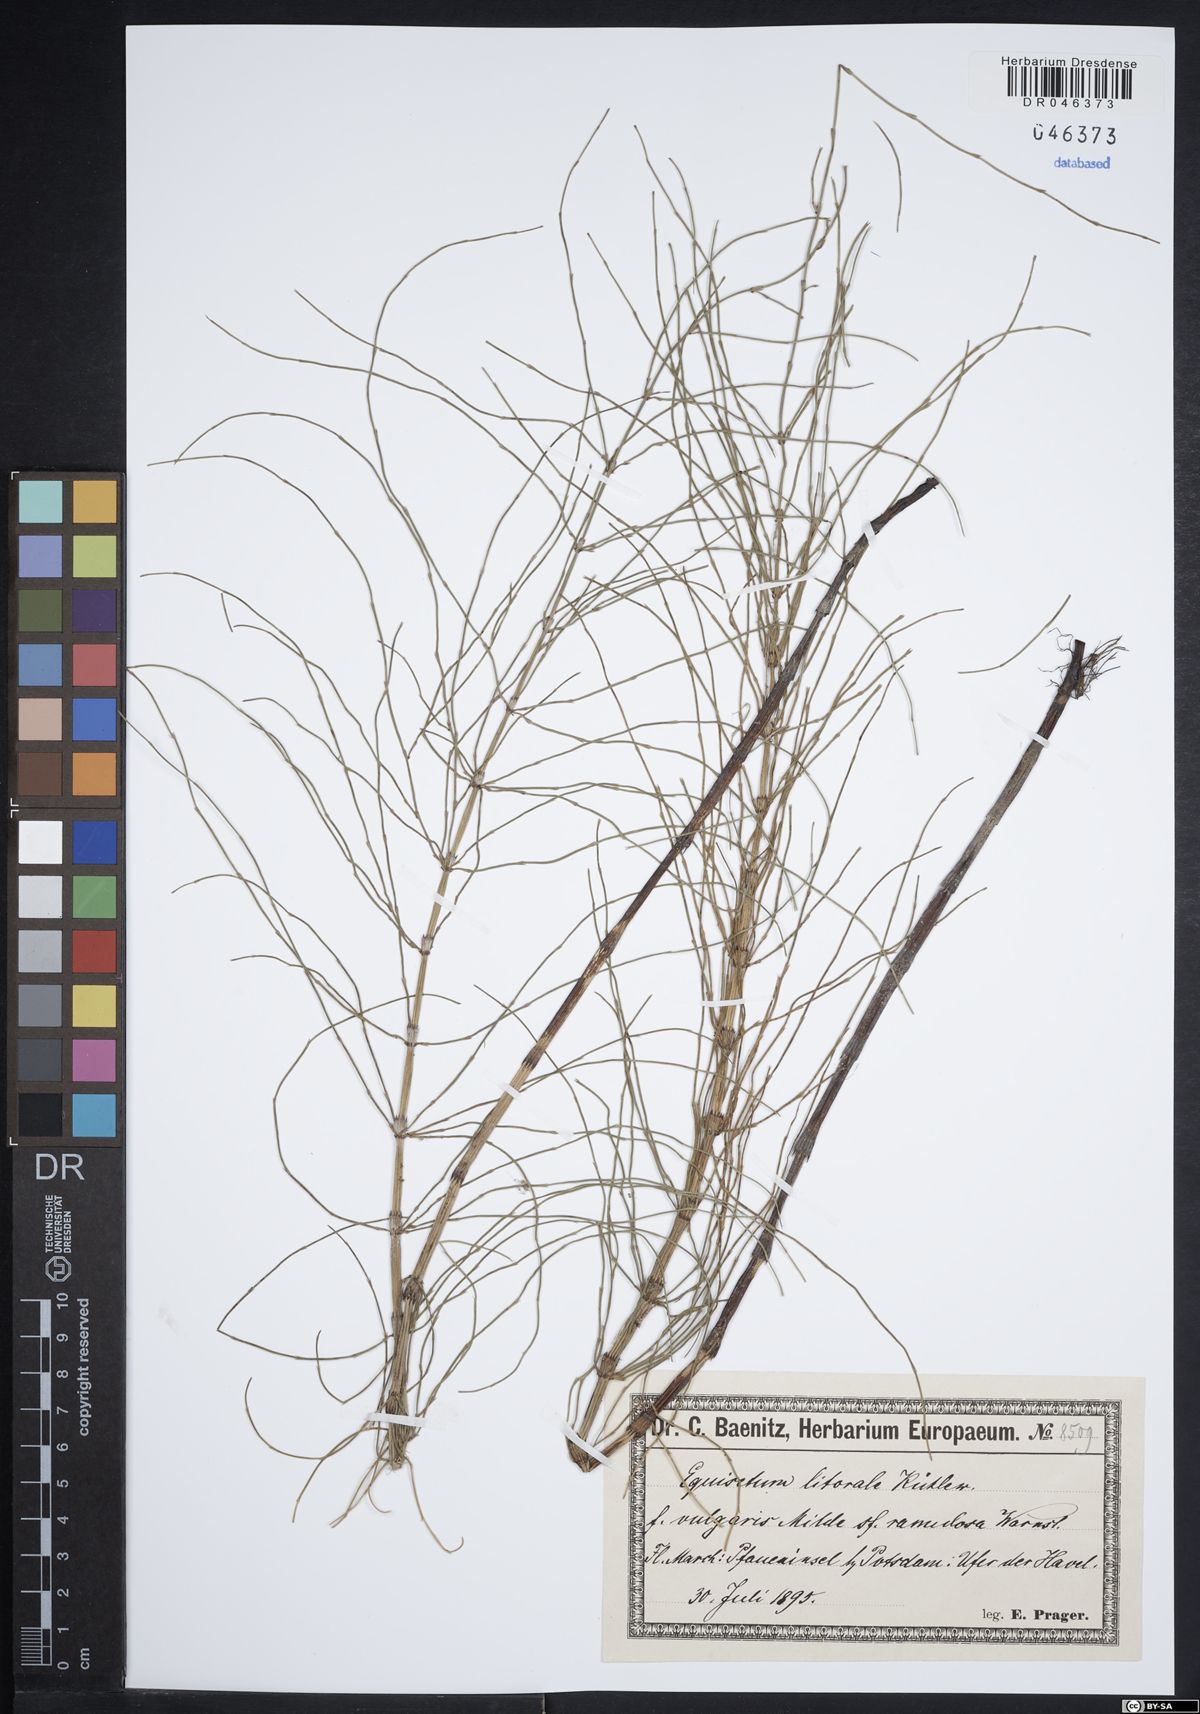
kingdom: Plantae
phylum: Tracheophyta
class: Polypodiopsida
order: Equisetales
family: Equisetaceae
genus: Equisetum
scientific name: Equisetum litorale
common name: Littoral horsetail
